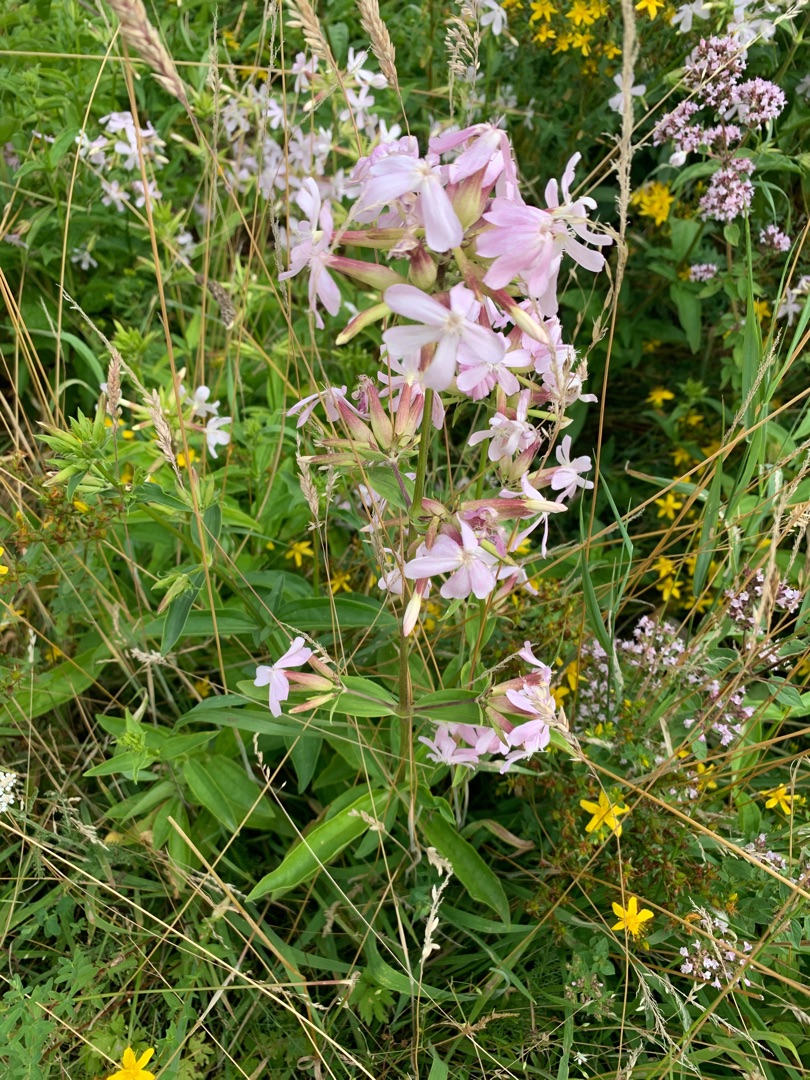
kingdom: Plantae
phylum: Tracheophyta
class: Magnoliopsida
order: Caryophyllales
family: Caryophyllaceae
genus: Saponaria
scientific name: Saponaria officinalis
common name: Sæbeurt
